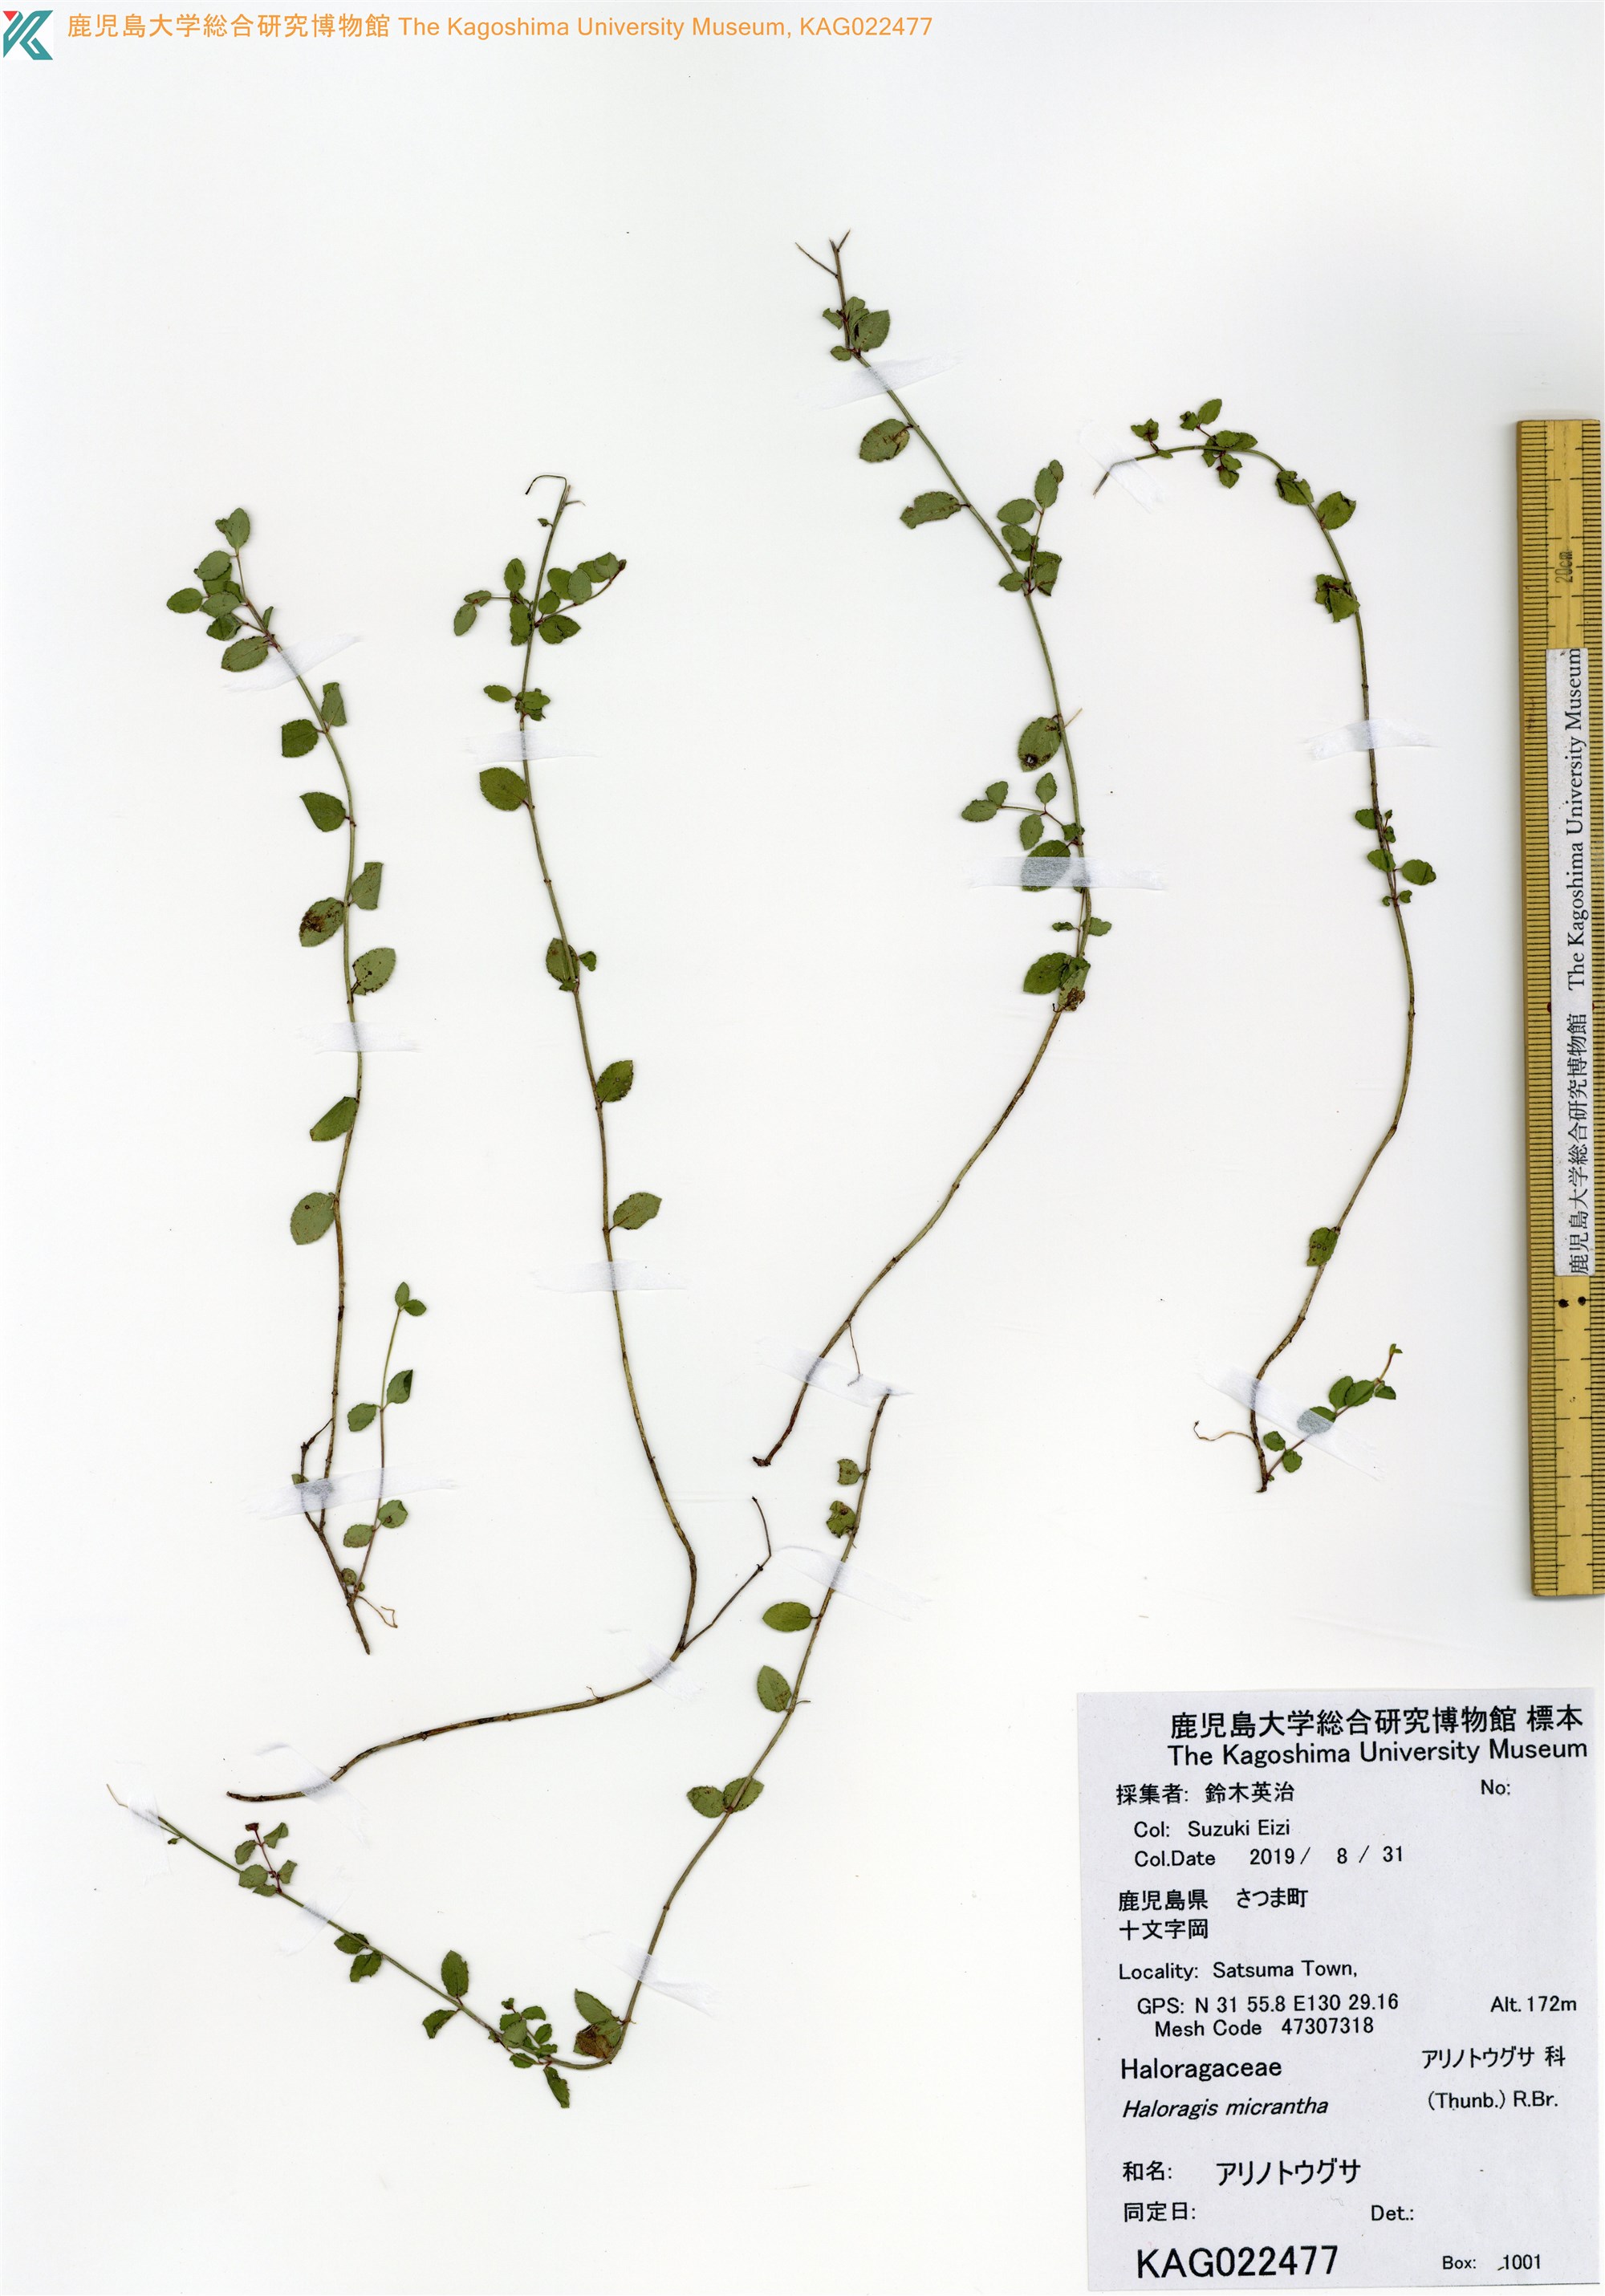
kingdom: Plantae
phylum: Tracheophyta
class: Magnoliopsida
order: Saxifragales
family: Haloragaceae
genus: Gonocarpus
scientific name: Gonocarpus micranthus
